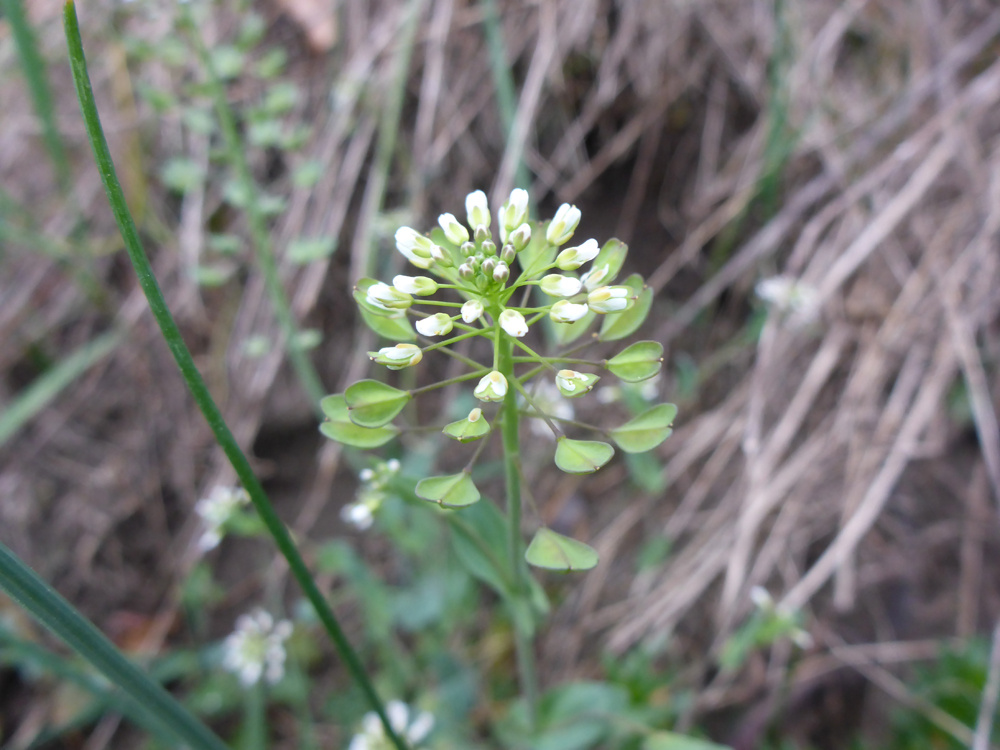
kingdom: Plantae
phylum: Tracheophyta
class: Magnoliopsida
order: Brassicales
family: Brassicaceae
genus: Thlaspi
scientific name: Thlaspi arvense
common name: Field pennycress
